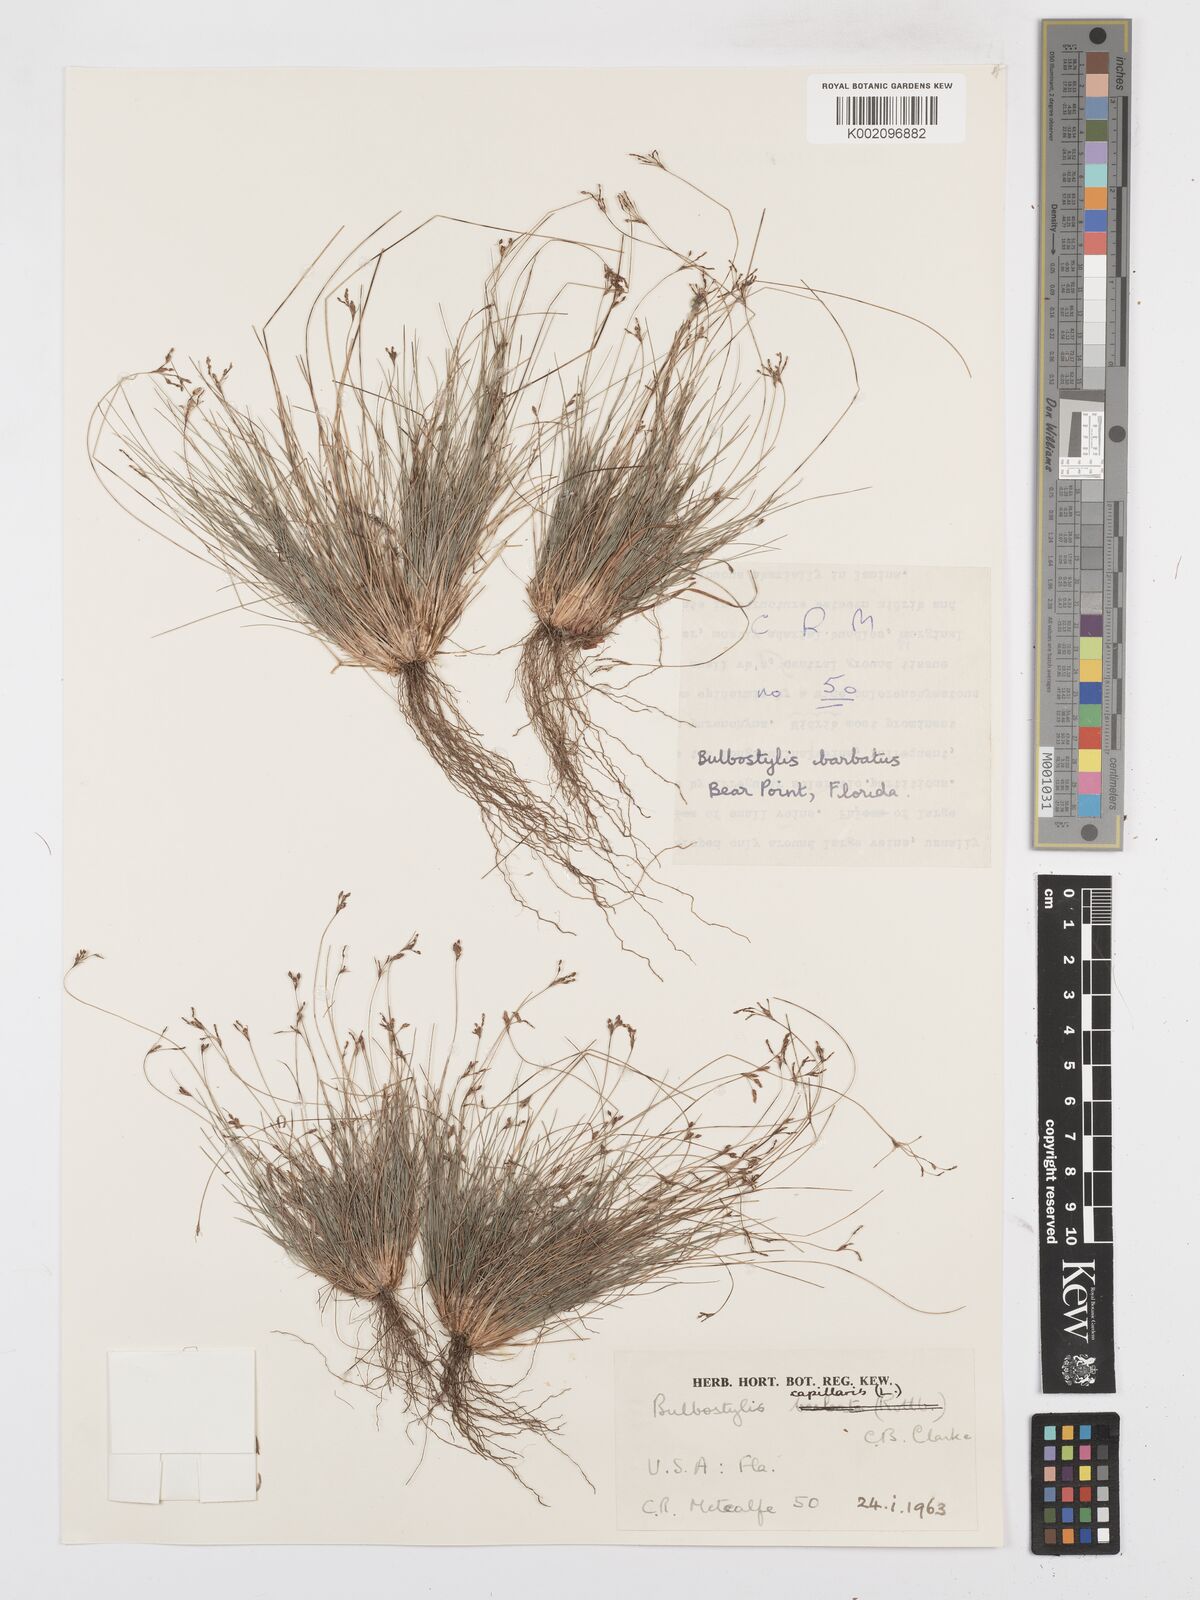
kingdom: Plantae
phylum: Tracheophyta
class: Liliopsida
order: Poales
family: Cyperaceae
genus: Bulbostylis
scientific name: Bulbostylis capillaris
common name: Densetuft hairsedge
